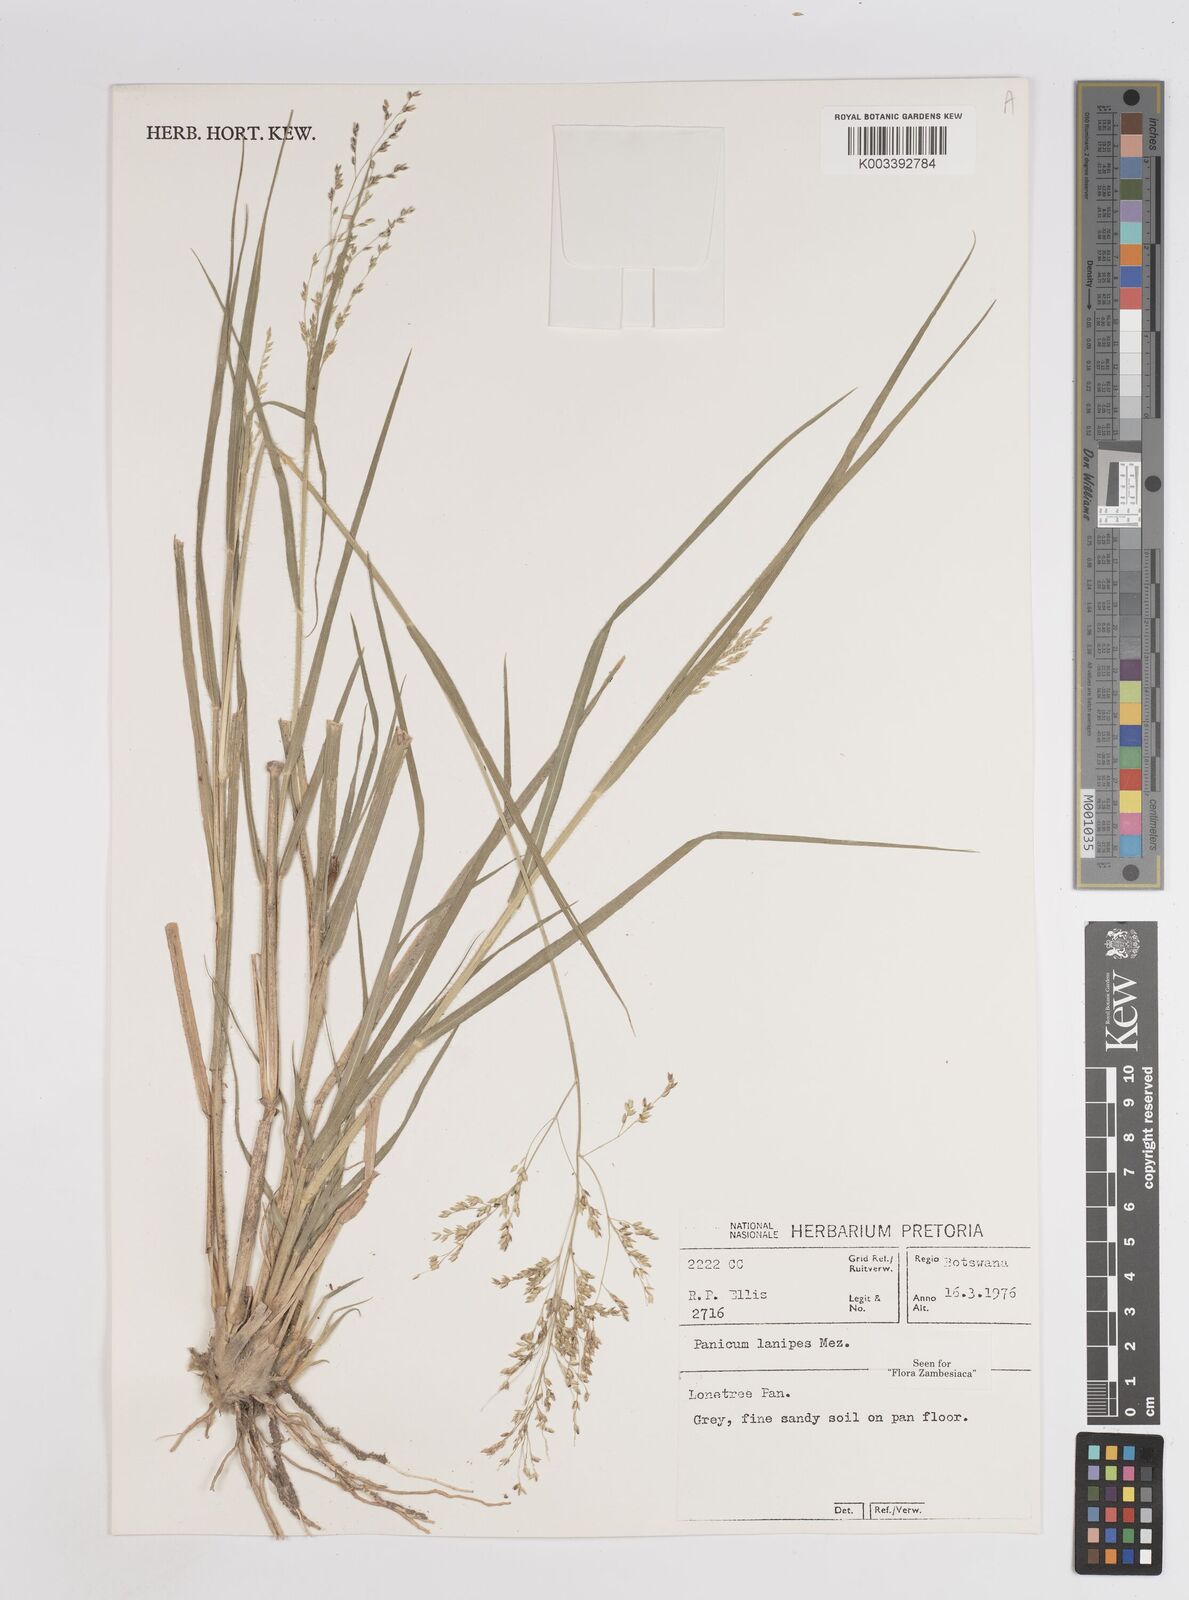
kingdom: Plantae
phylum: Tracheophyta
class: Liliopsida
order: Poales
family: Poaceae
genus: Panicum
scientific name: Panicum lanipes
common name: Wolvoet panicum
